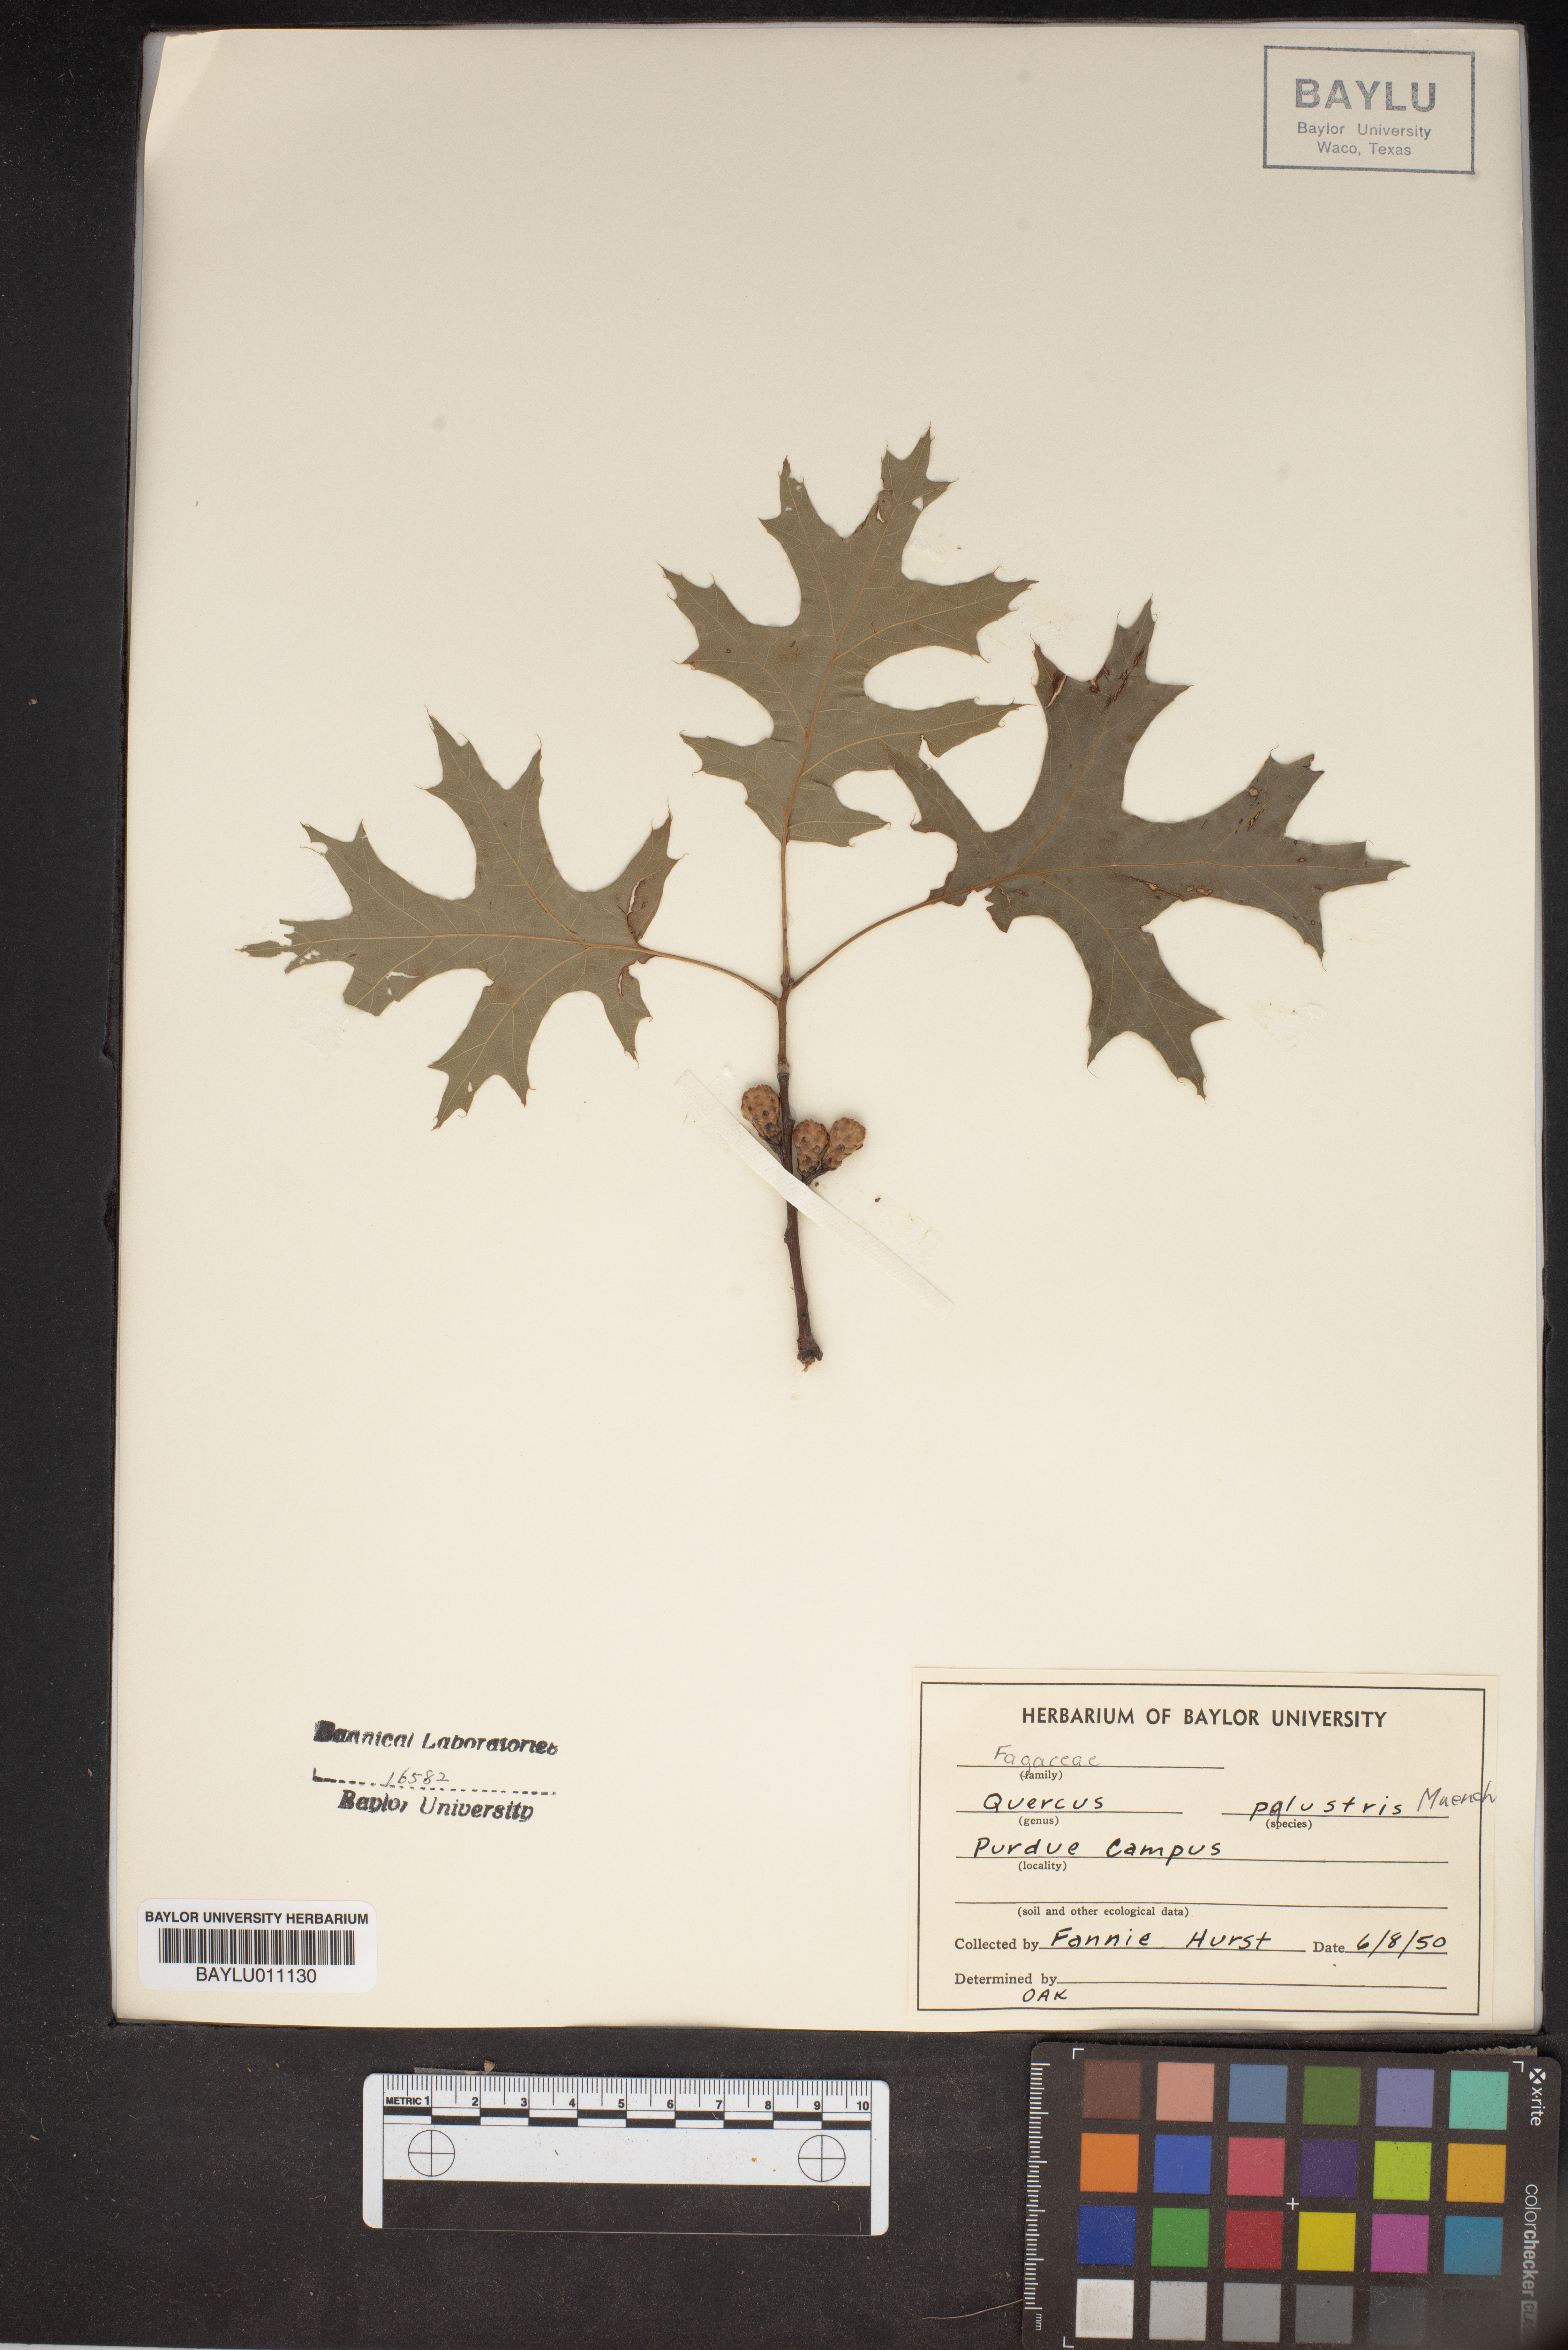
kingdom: Plantae
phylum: Tracheophyta
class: Magnoliopsida
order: Fagales
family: Fagaceae
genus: Quercus
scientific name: Quercus palustris
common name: Pin oak
